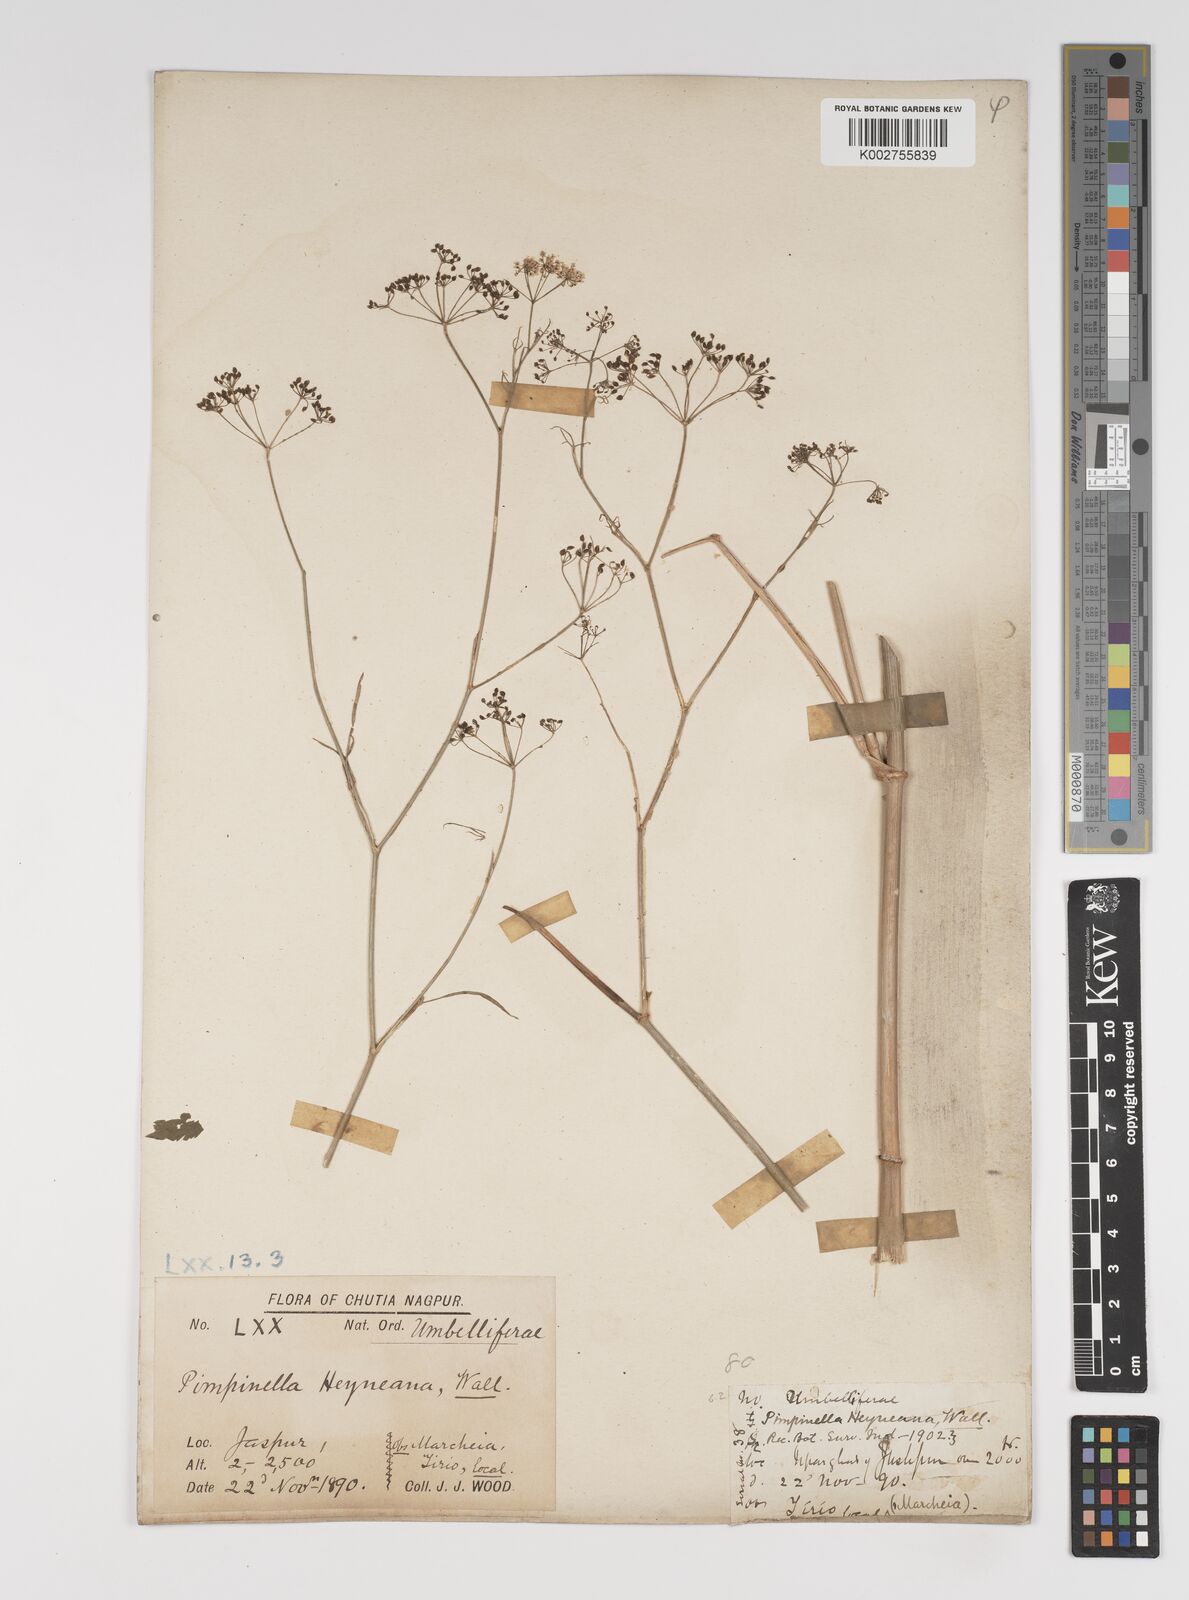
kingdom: Plantae
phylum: Tracheophyta
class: Magnoliopsida
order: Apiales
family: Apiaceae
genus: Pimpinella
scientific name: Pimpinella heyneana
